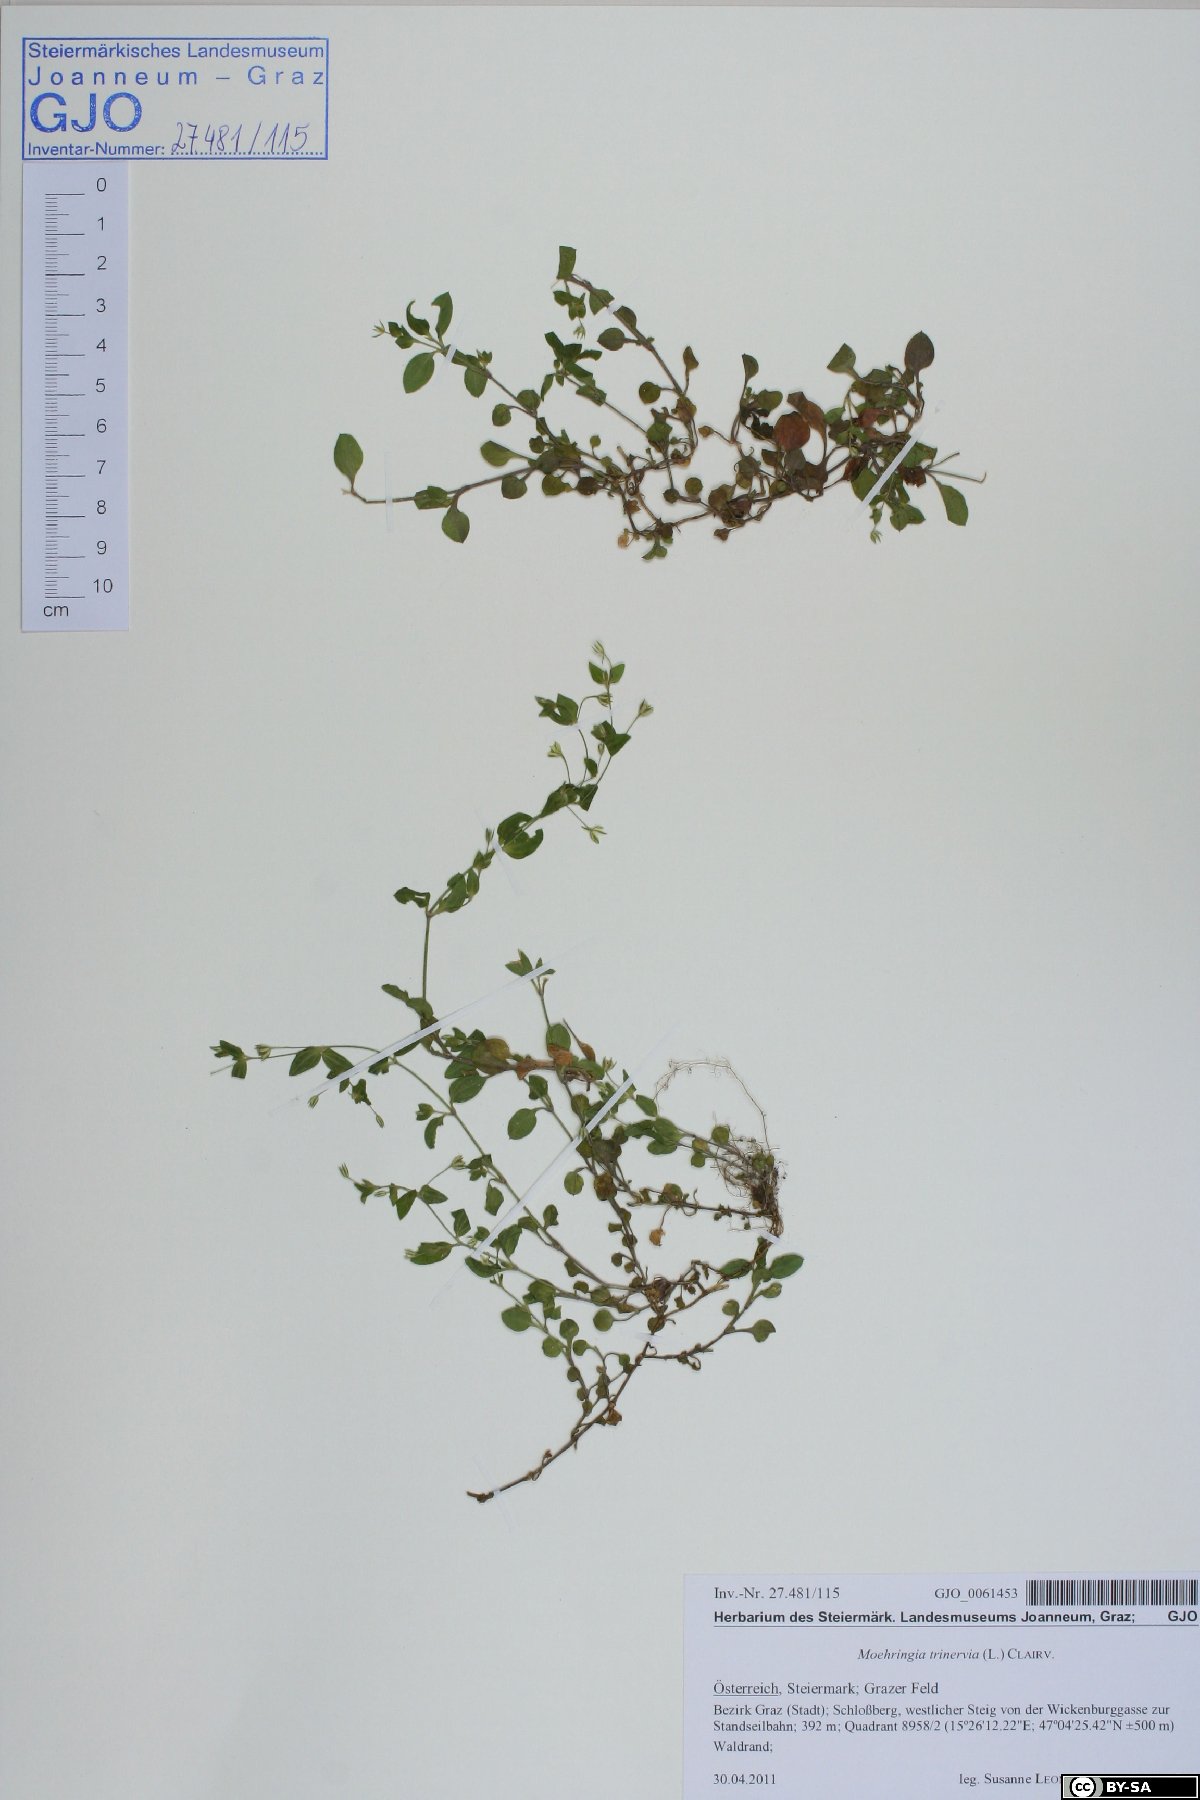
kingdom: Plantae
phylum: Tracheophyta
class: Magnoliopsida
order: Caryophyllales
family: Caryophyllaceae
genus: Moehringia
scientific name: Moehringia trinervia
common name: Three-nerved sandwort
